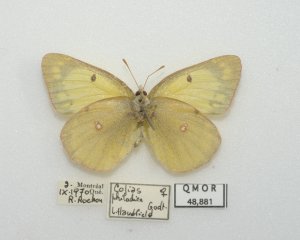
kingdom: Animalia
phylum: Arthropoda
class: Insecta
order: Lepidoptera
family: Pieridae
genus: Colias
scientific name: Colias philodice
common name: Clouded Sulphur
